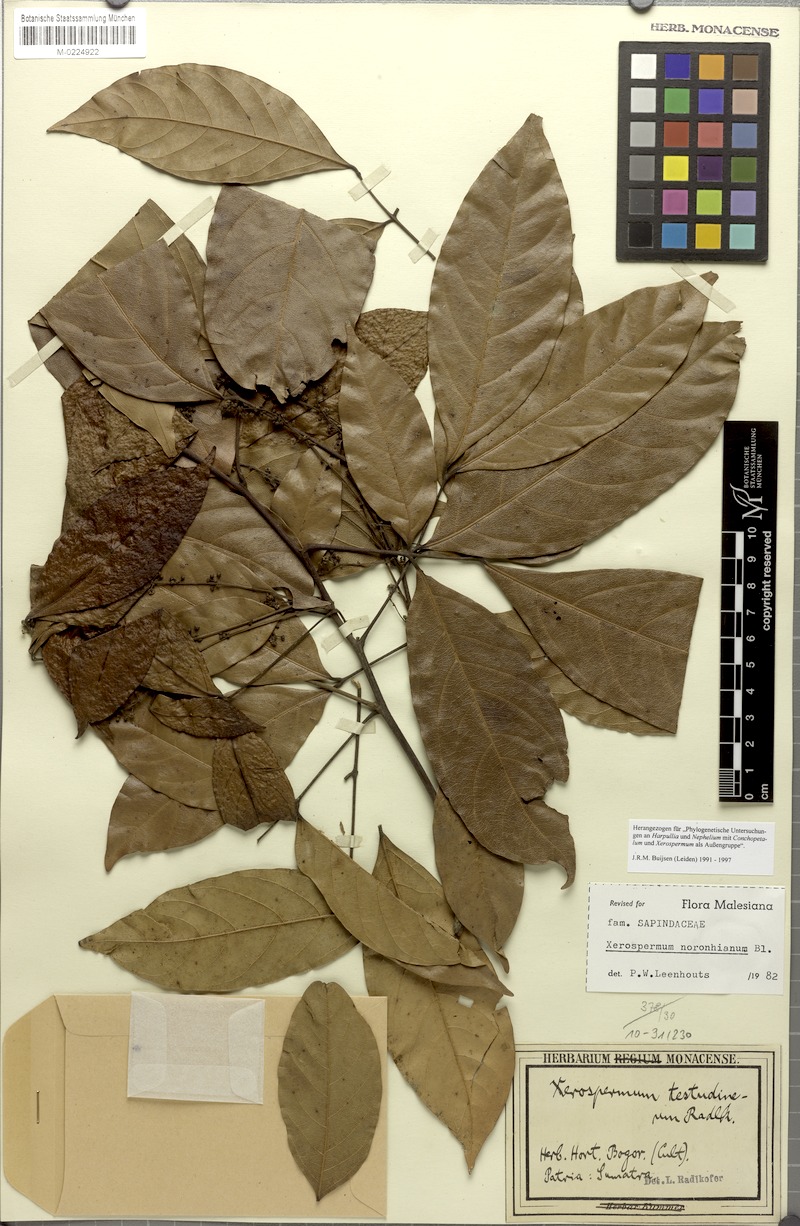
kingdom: Plantae
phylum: Tracheophyta
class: Magnoliopsida
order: Sapindales
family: Sapindaceae
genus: Xerospermum
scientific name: Xerospermum noronhianum
